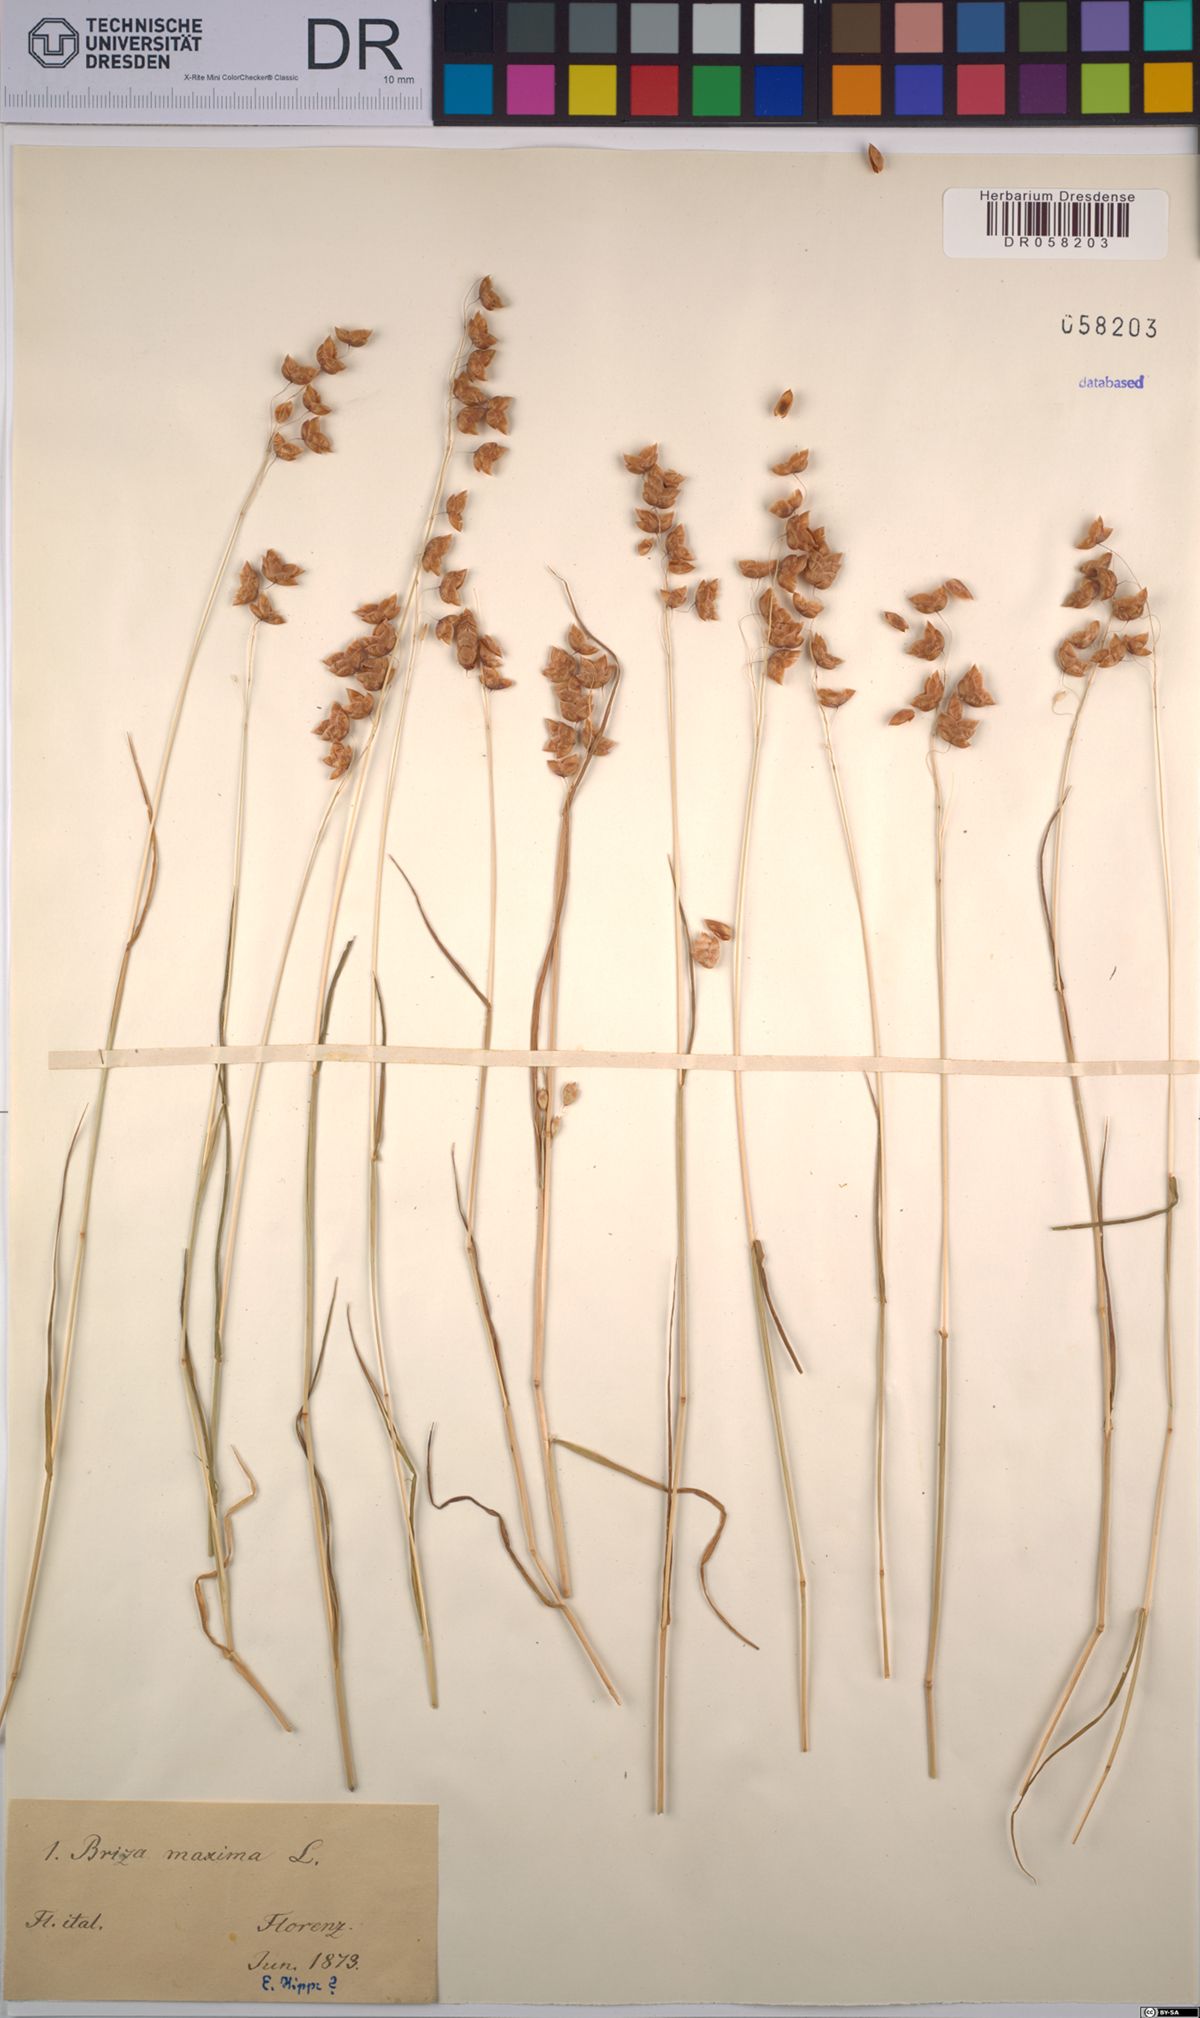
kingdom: Plantae
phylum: Tracheophyta
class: Liliopsida
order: Poales
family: Poaceae
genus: Briza
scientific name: Briza maxima
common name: Big quakinggrass
